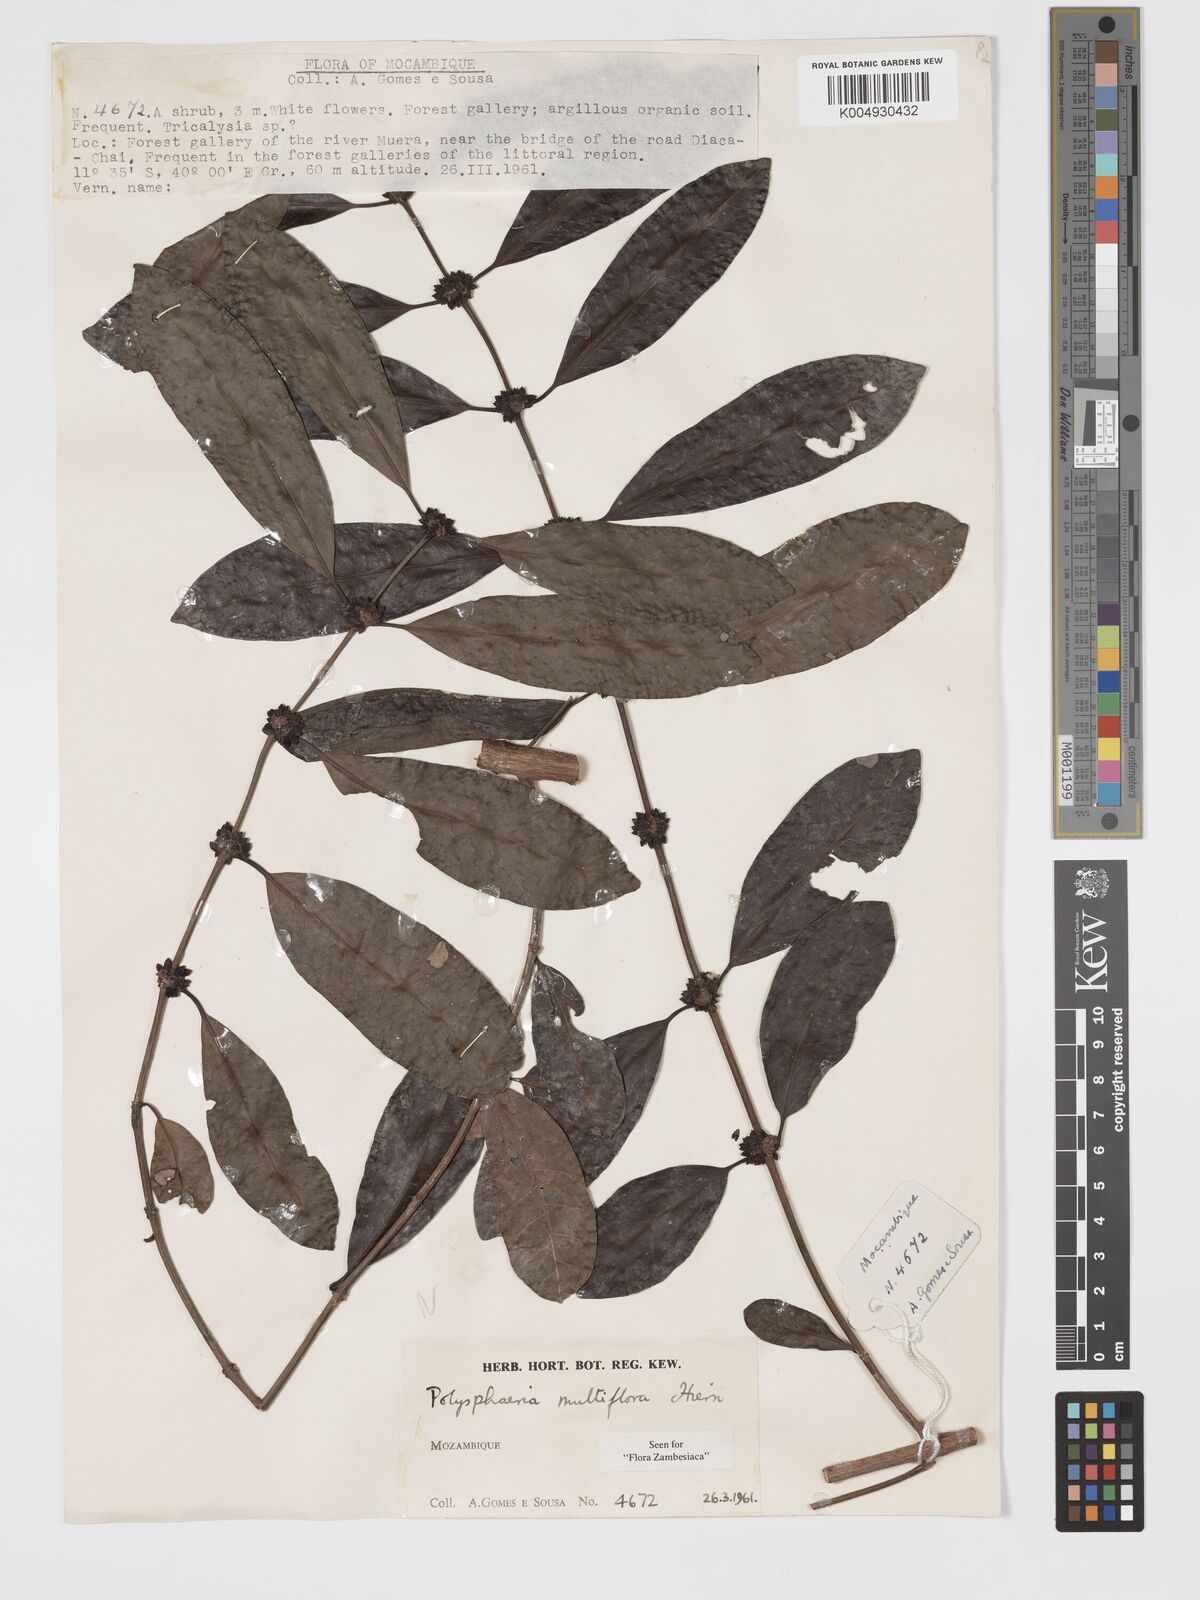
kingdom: Plantae
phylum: Tracheophyta
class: Magnoliopsida
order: Gentianales
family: Rubiaceae
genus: Polysphaeria
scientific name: Polysphaeria multiflora
